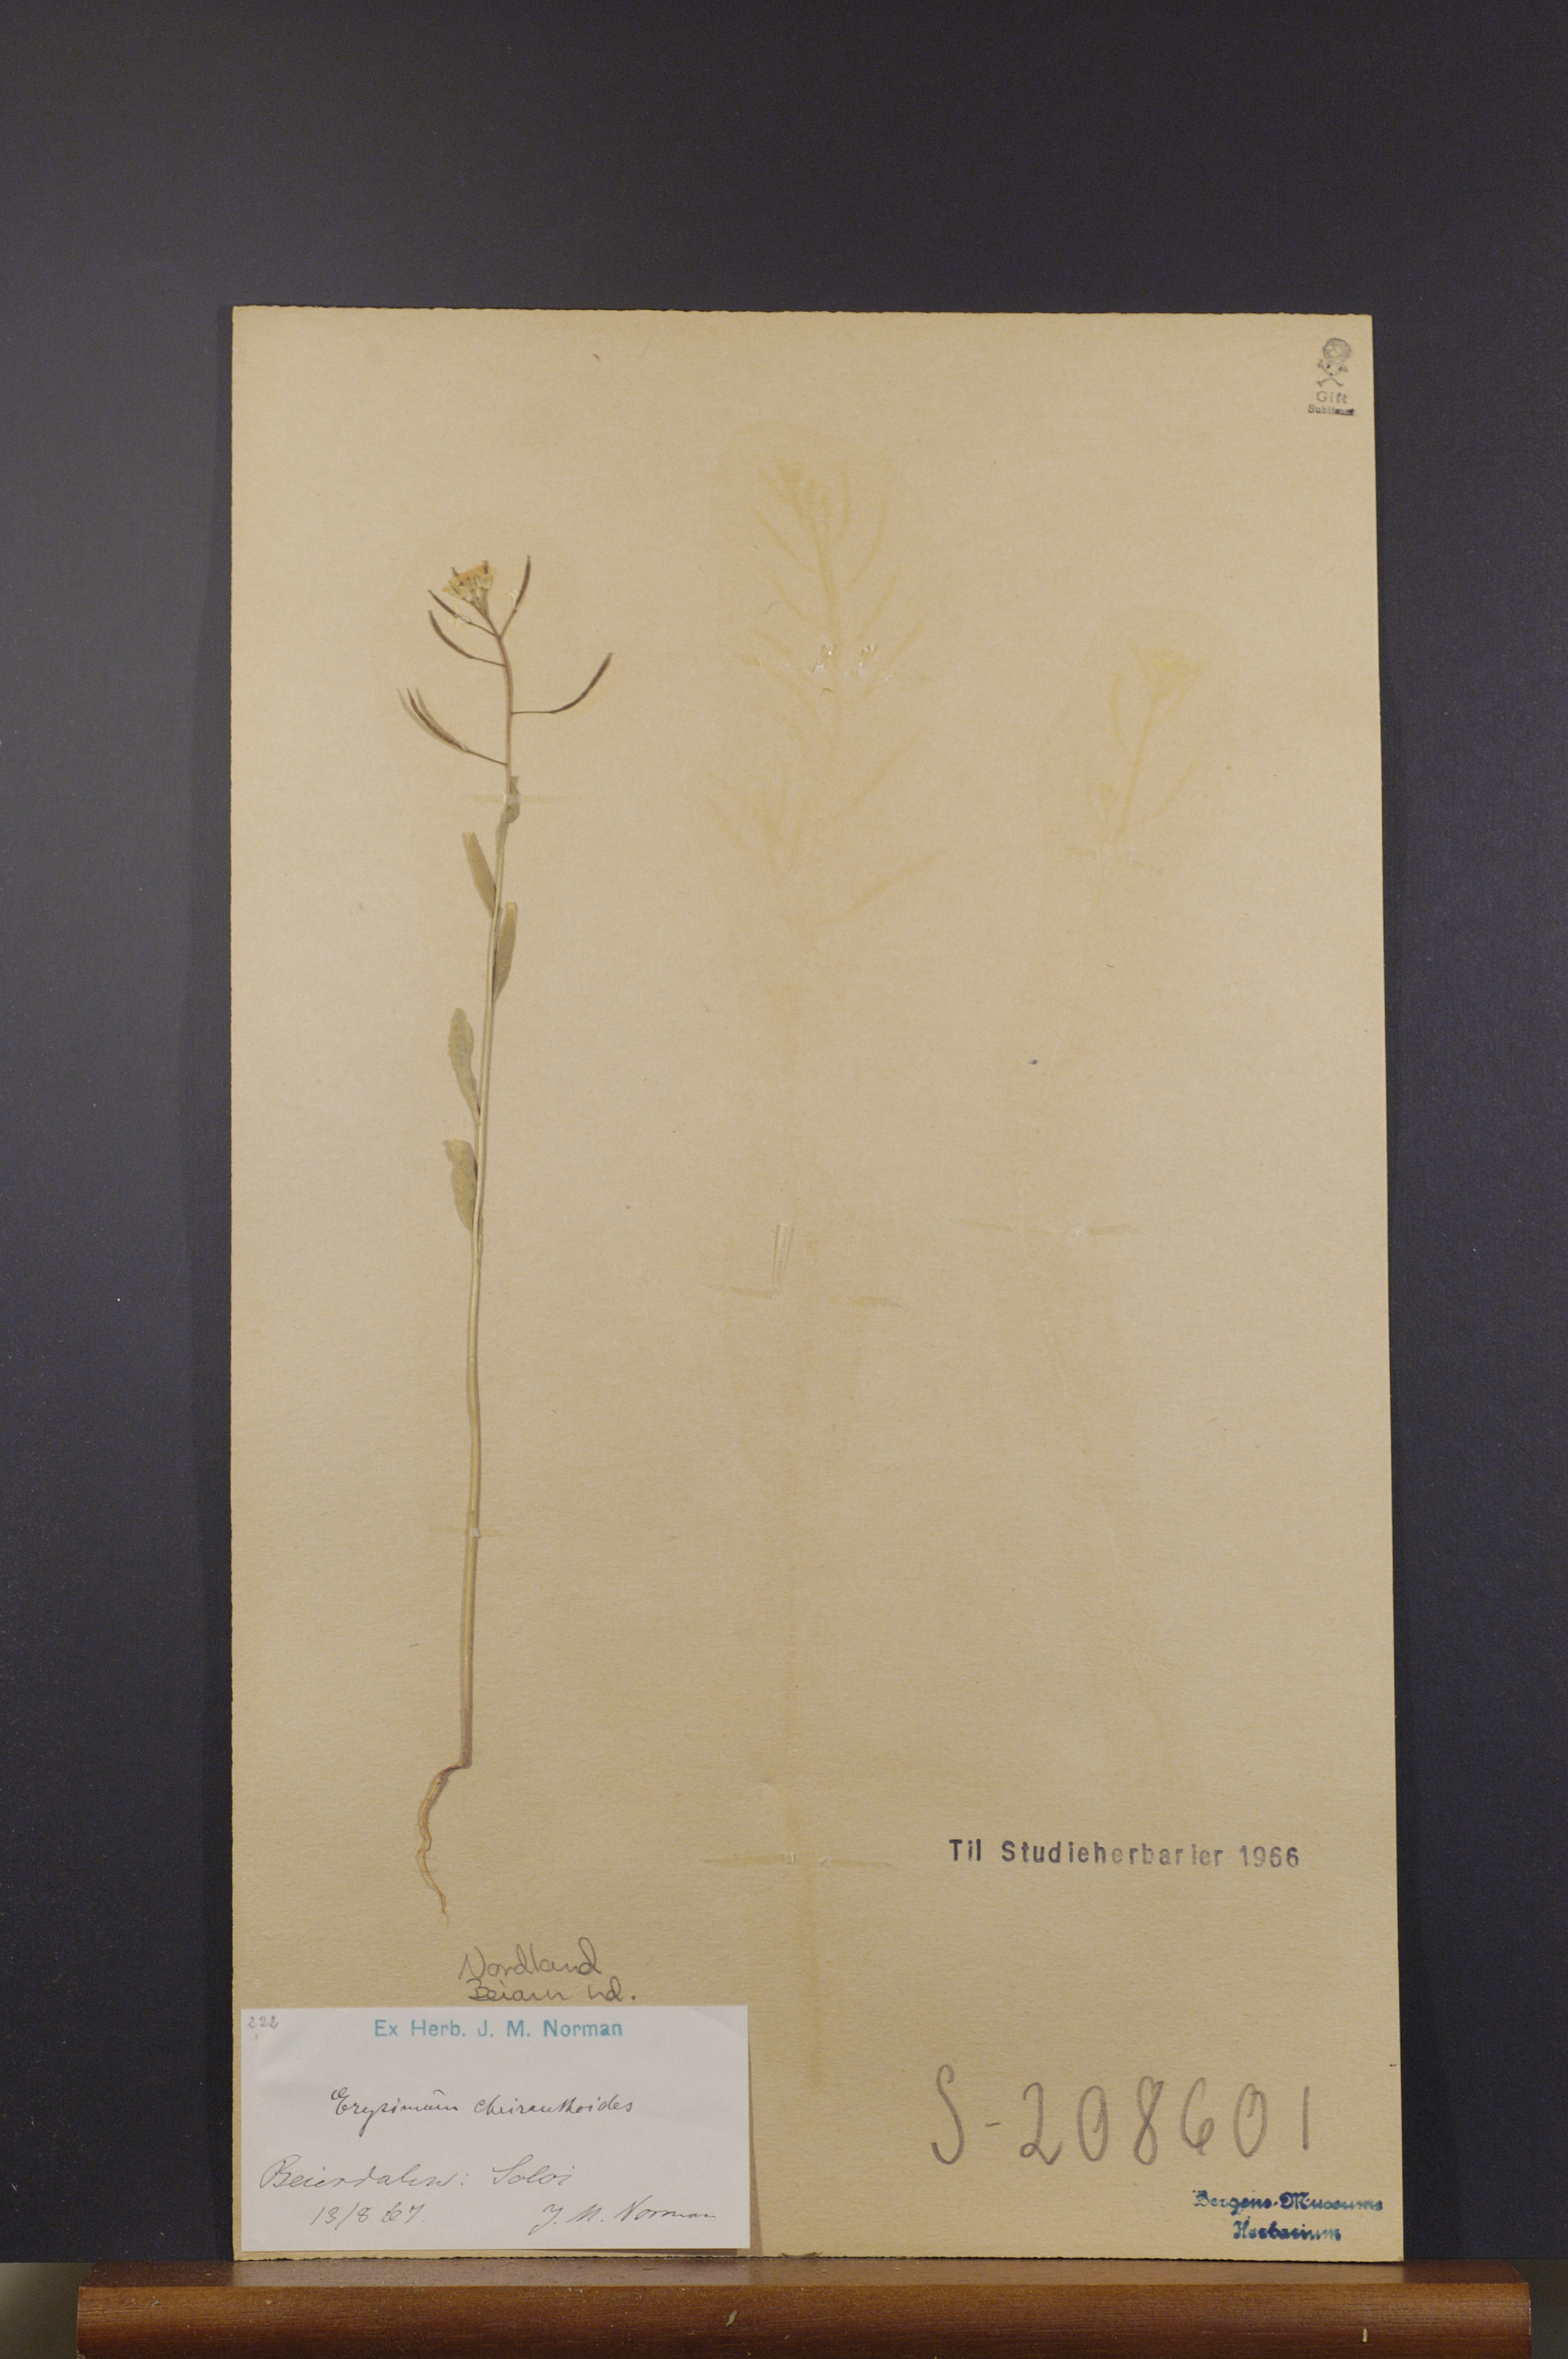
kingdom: Plantae
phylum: Tracheophyta
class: Magnoliopsida
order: Brassicales
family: Brassicaceae
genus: Erysimum
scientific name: Erysimum cheiranthoides
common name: Treacle mustard
